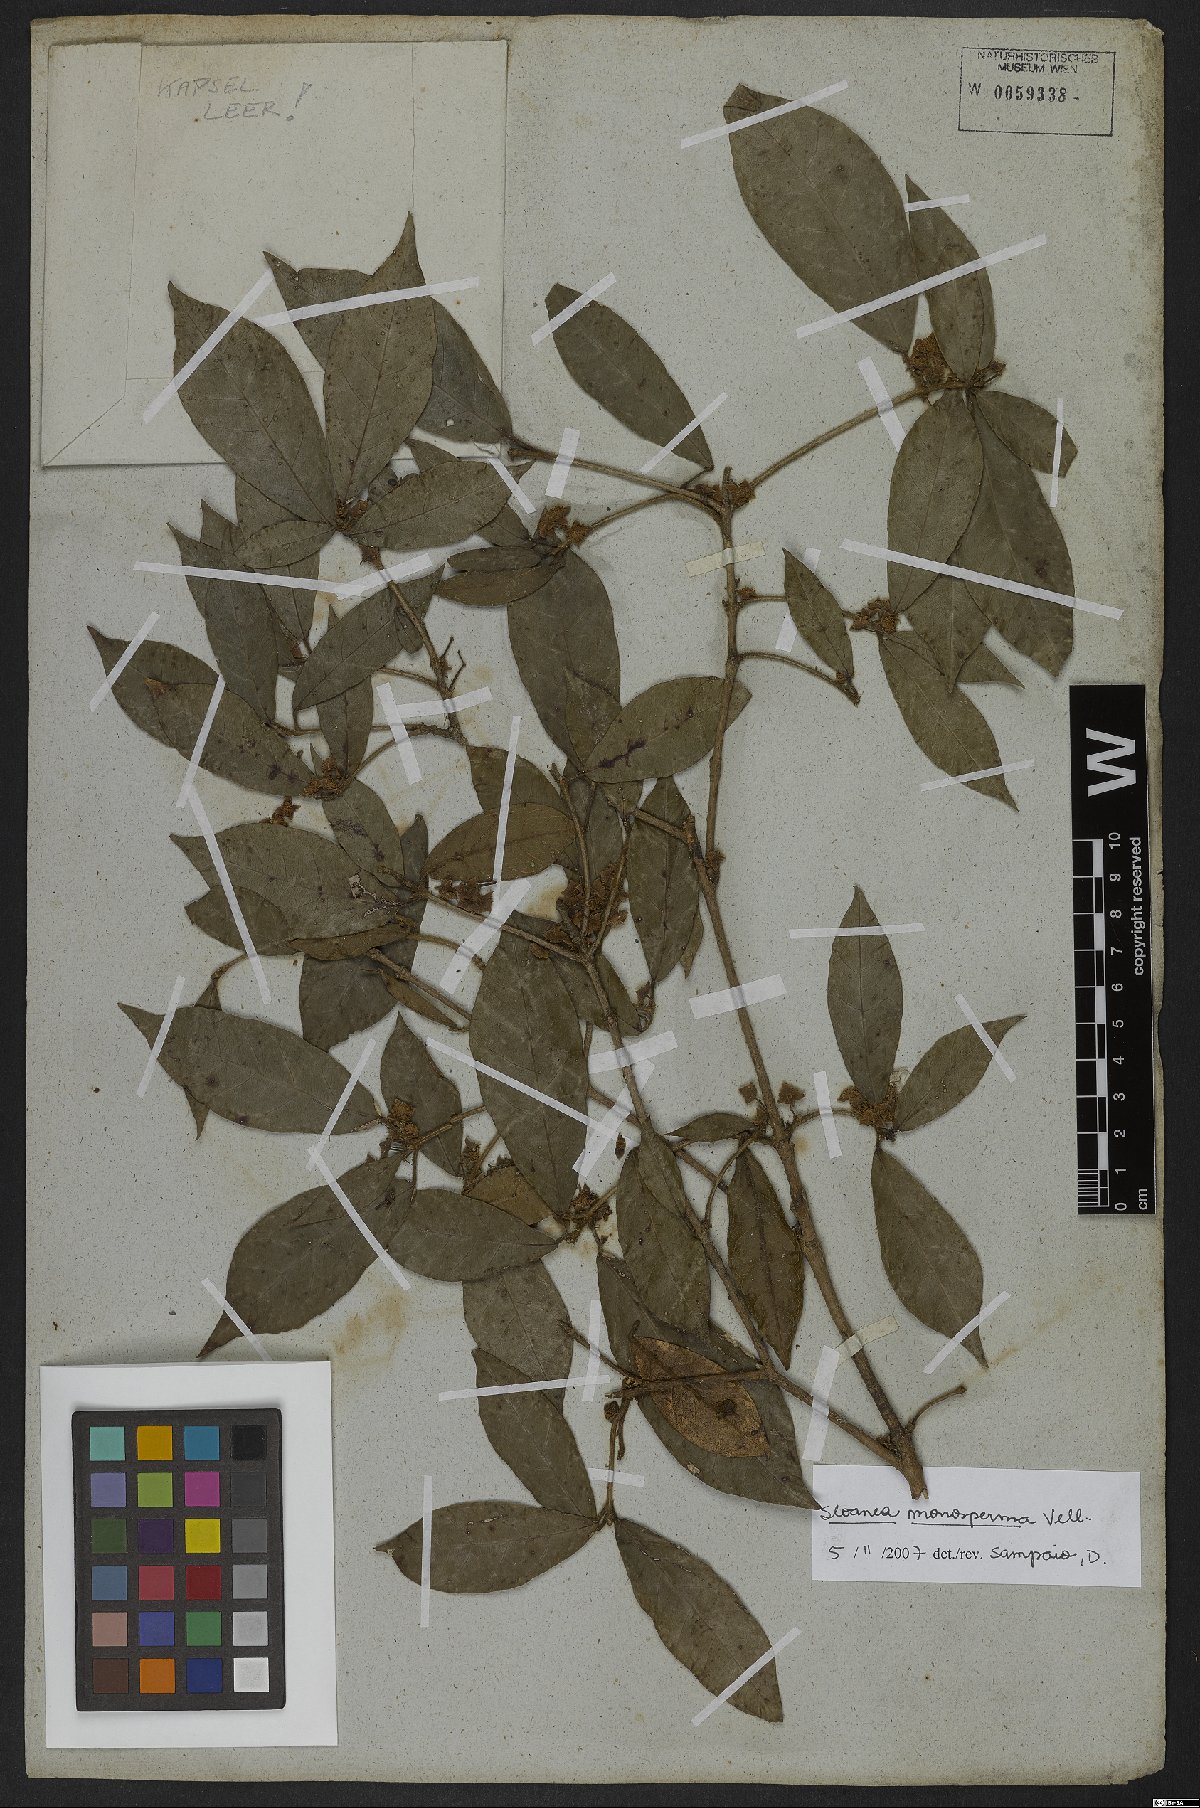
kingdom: Plantae
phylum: Tracheophyta
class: Magnoliopsida
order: Oxalidales
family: Elaeocarpaceae
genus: Sloanea
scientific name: Sloanea hirsuta
